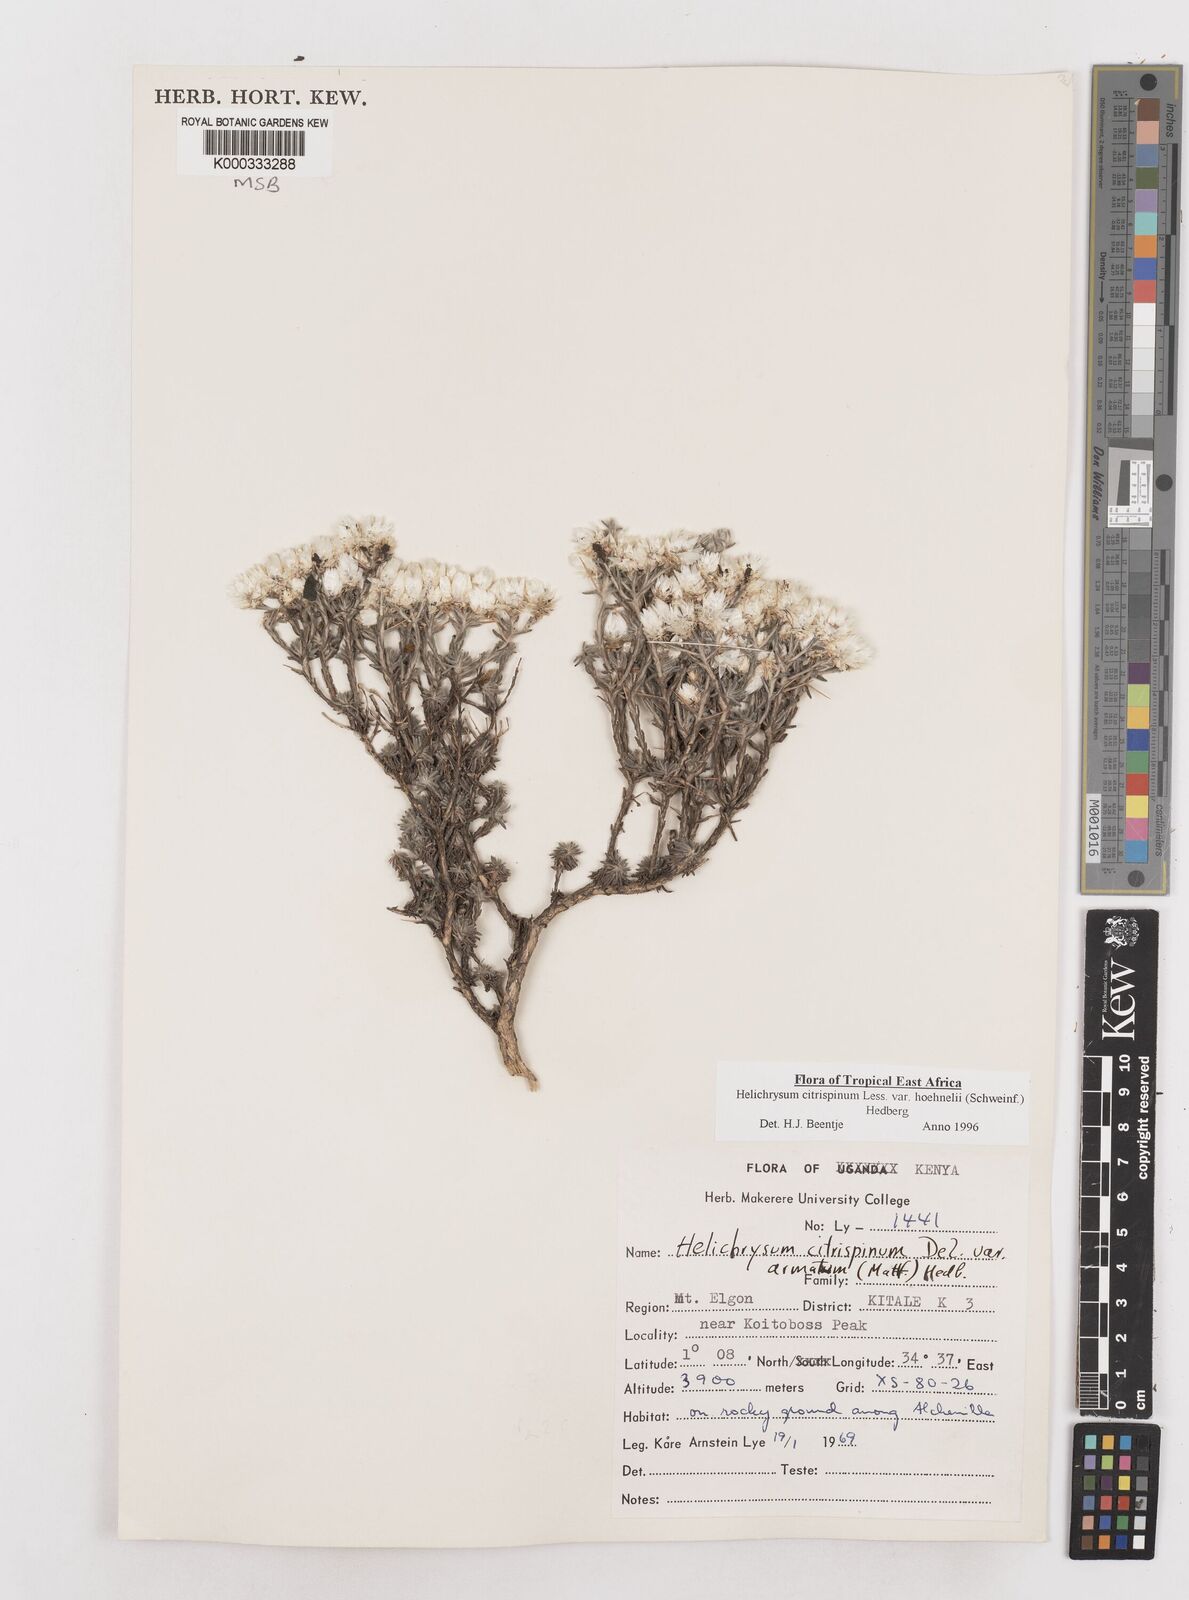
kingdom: Plantae
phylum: Tracheophyta
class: Magnoliopsida
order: Asterales
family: Asteraceae
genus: Helichrysum
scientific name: Helichrysum citrispinum
